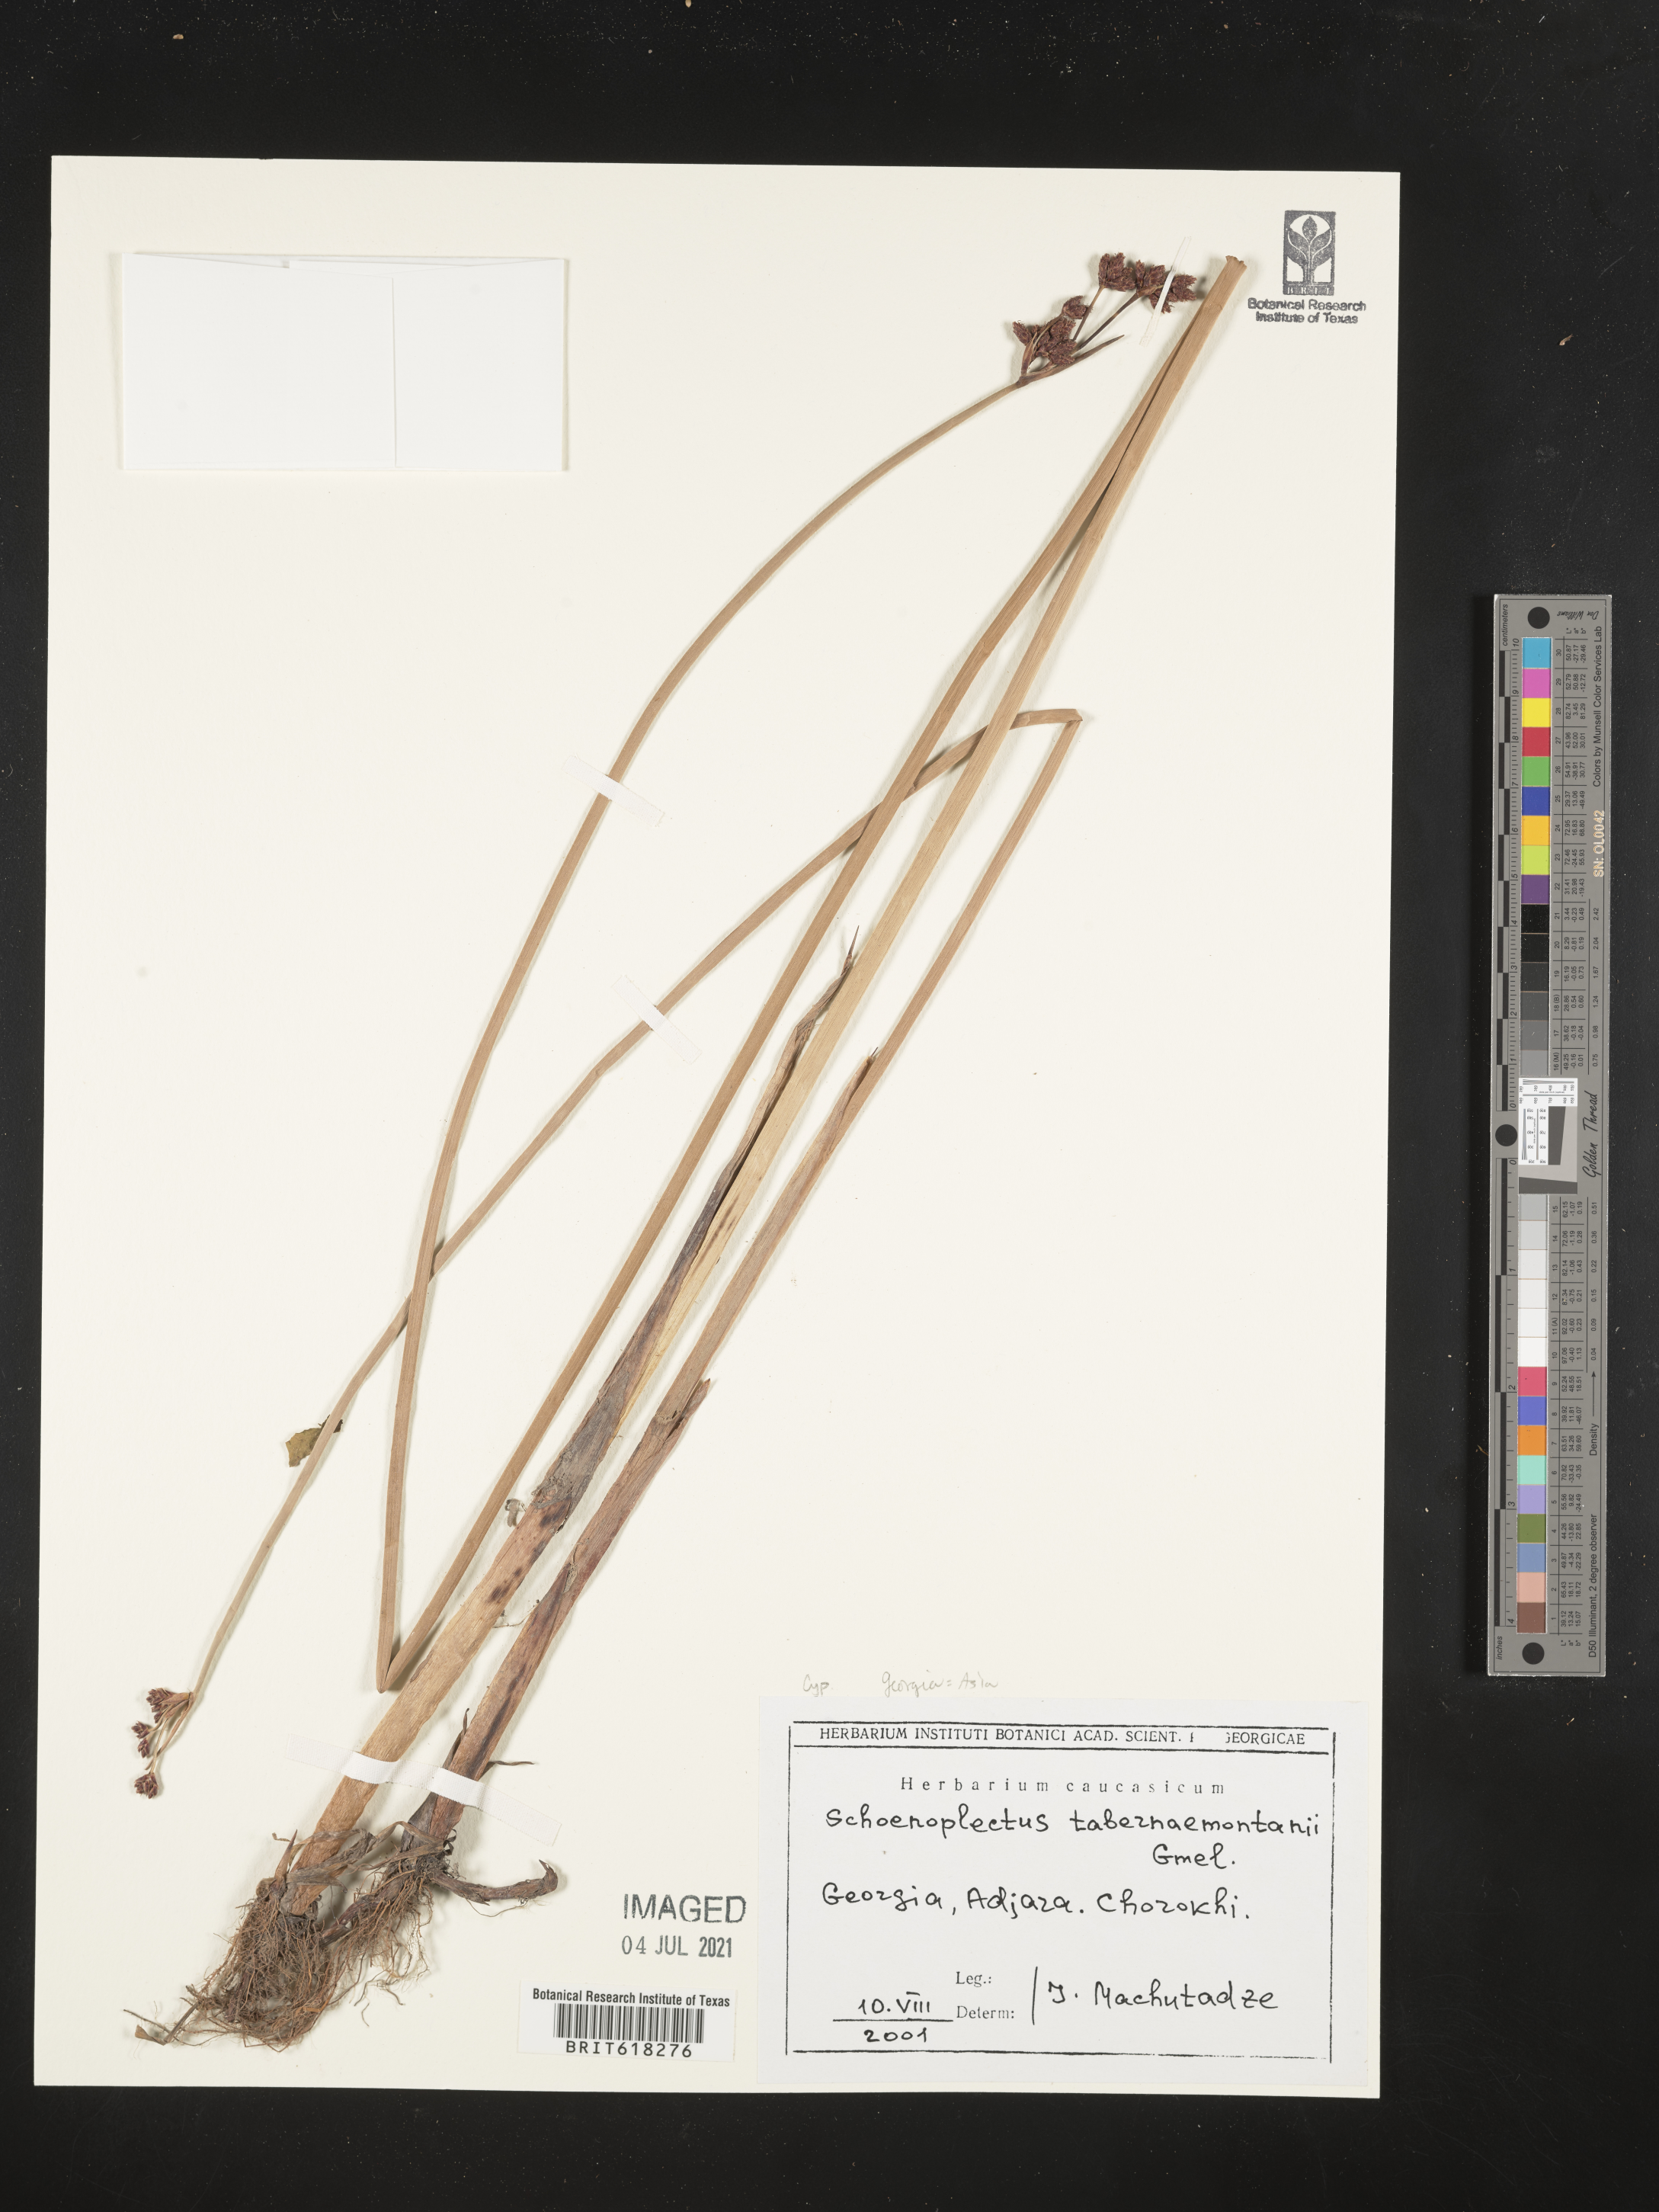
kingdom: Plantae
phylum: Tracheophyta
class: Liliopsida
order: Poales
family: Cyperaceae
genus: Schoenoplectus
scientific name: Schoenoplectus tabernaemontani
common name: Grey club-rush
